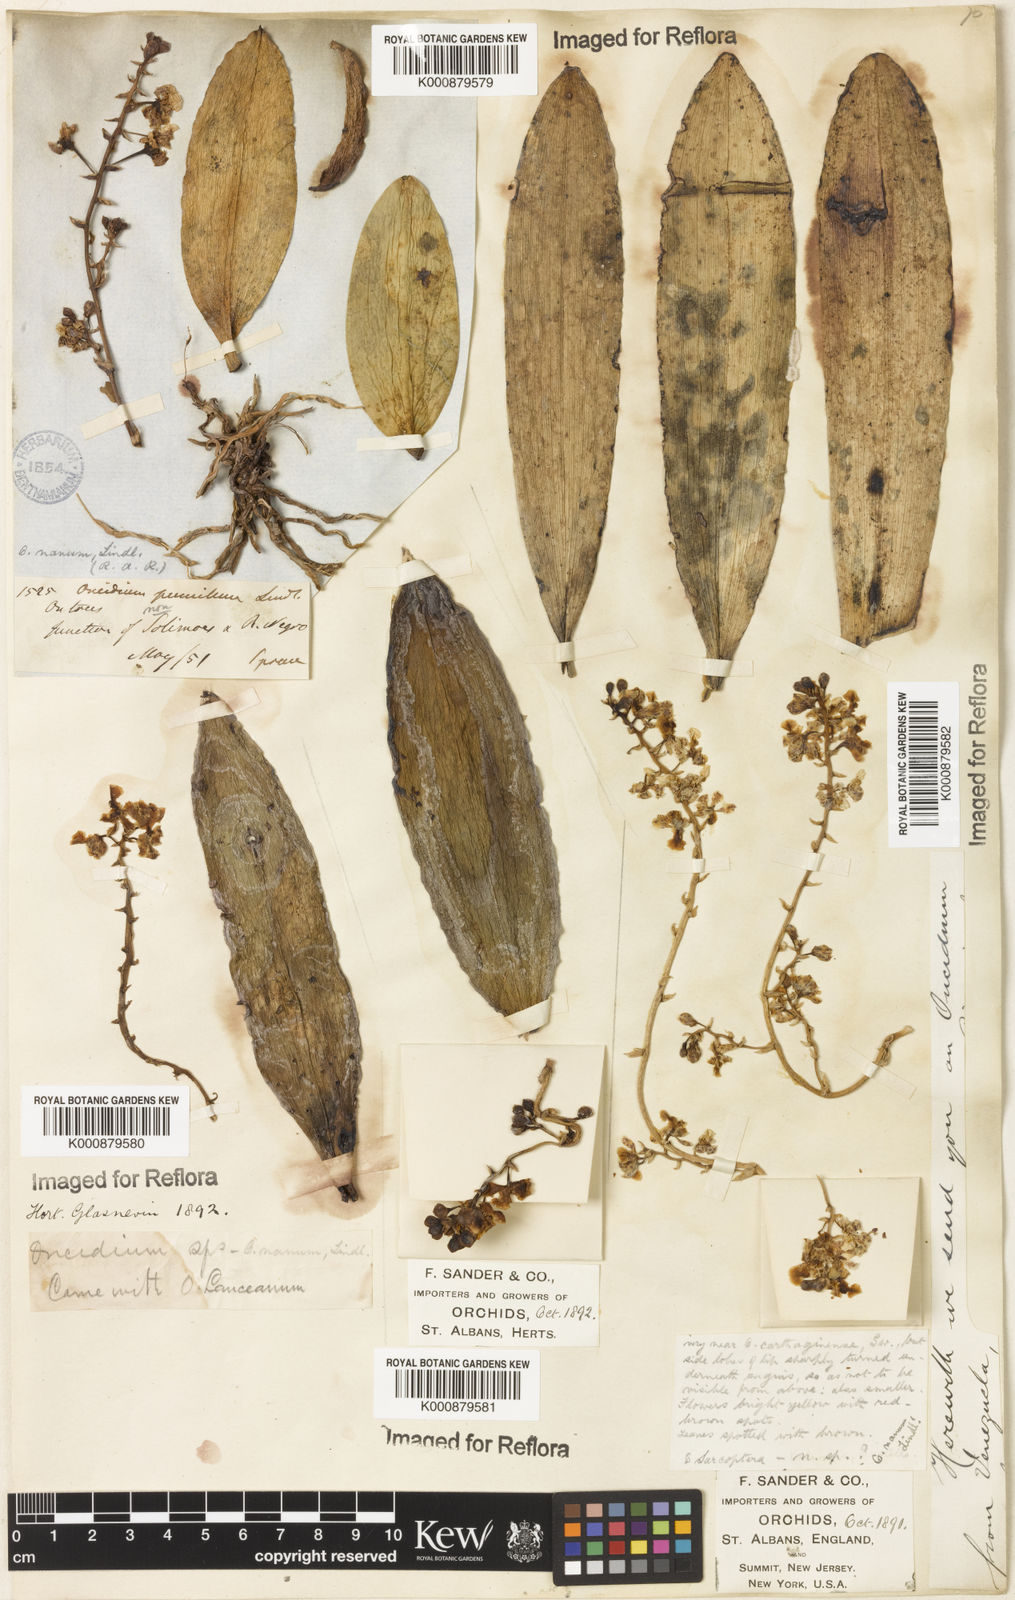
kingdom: Plantae
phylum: Tracheophyta
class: Liliopsida
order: Asparagales
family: Orchidaceae
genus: Trichocentrum
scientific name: Trichocentrum nanum
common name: Mule-ear orchid
